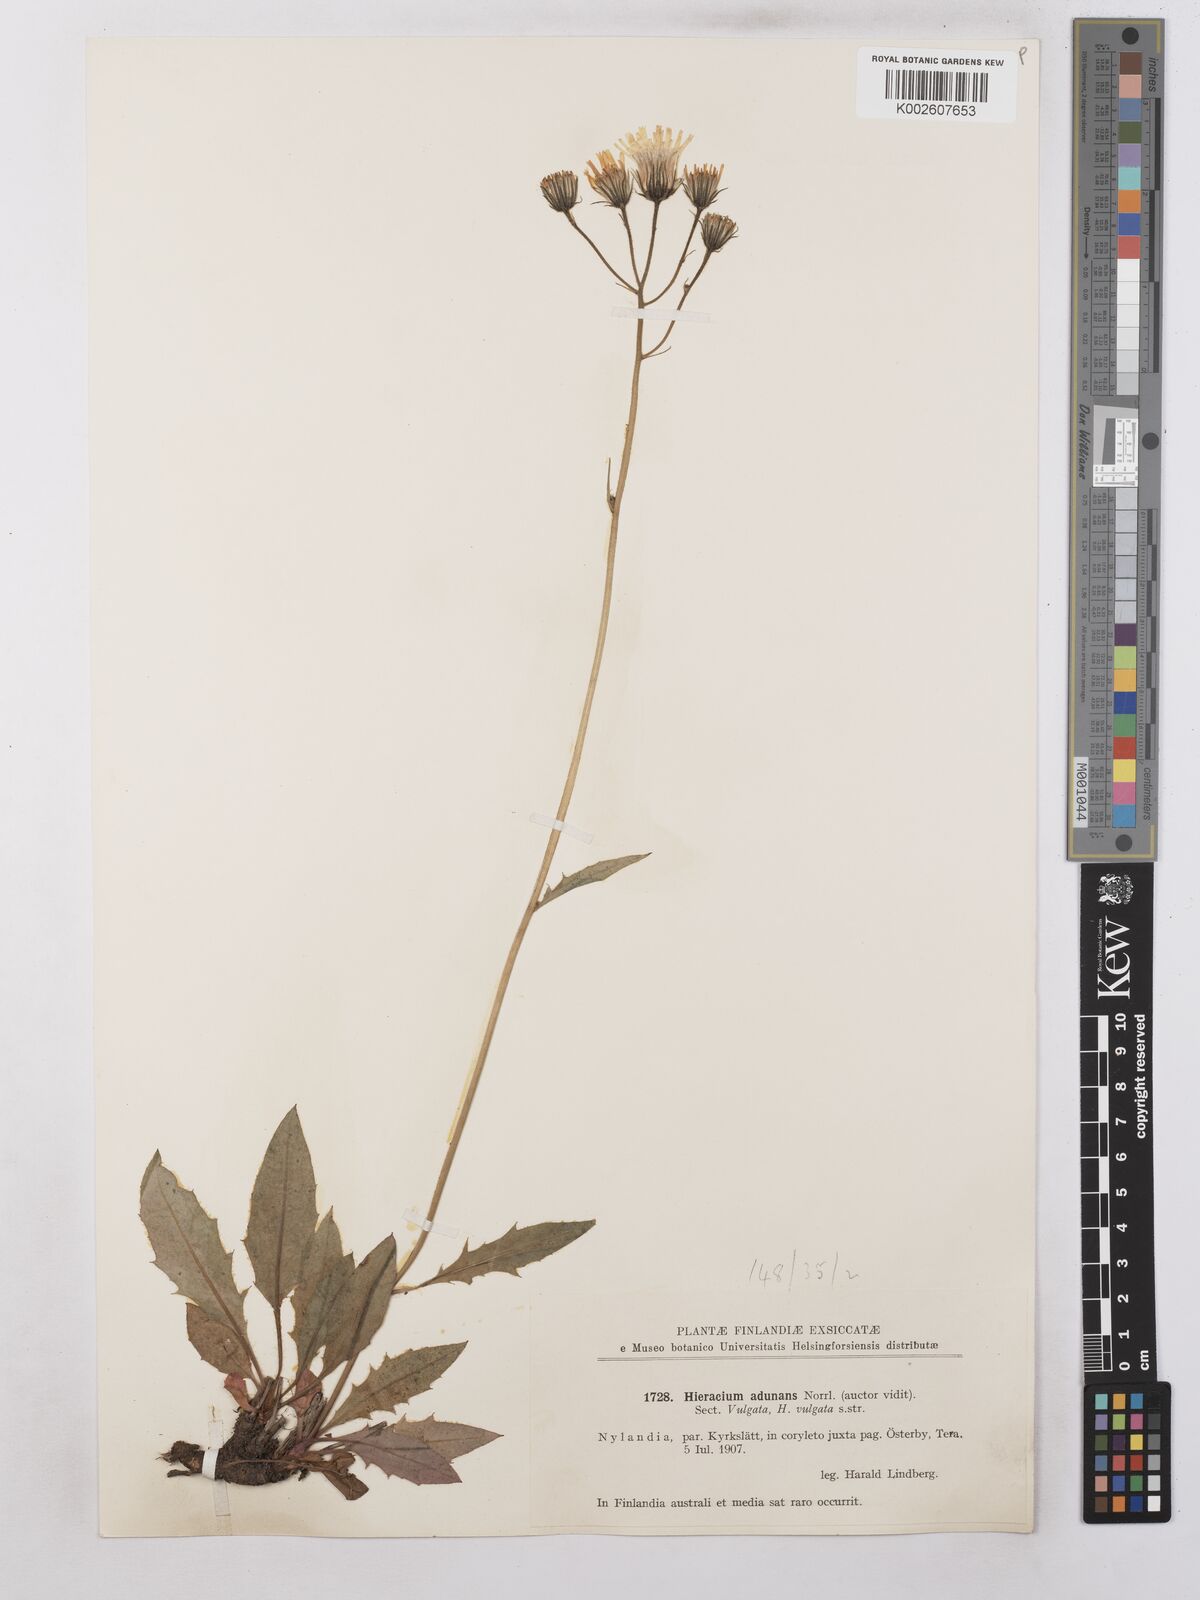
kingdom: Plantae
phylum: Tracheophyta
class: Magnoliopsida
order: Asterales
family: Asteraceae
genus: Hieracium
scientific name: Hieracium subramosum
